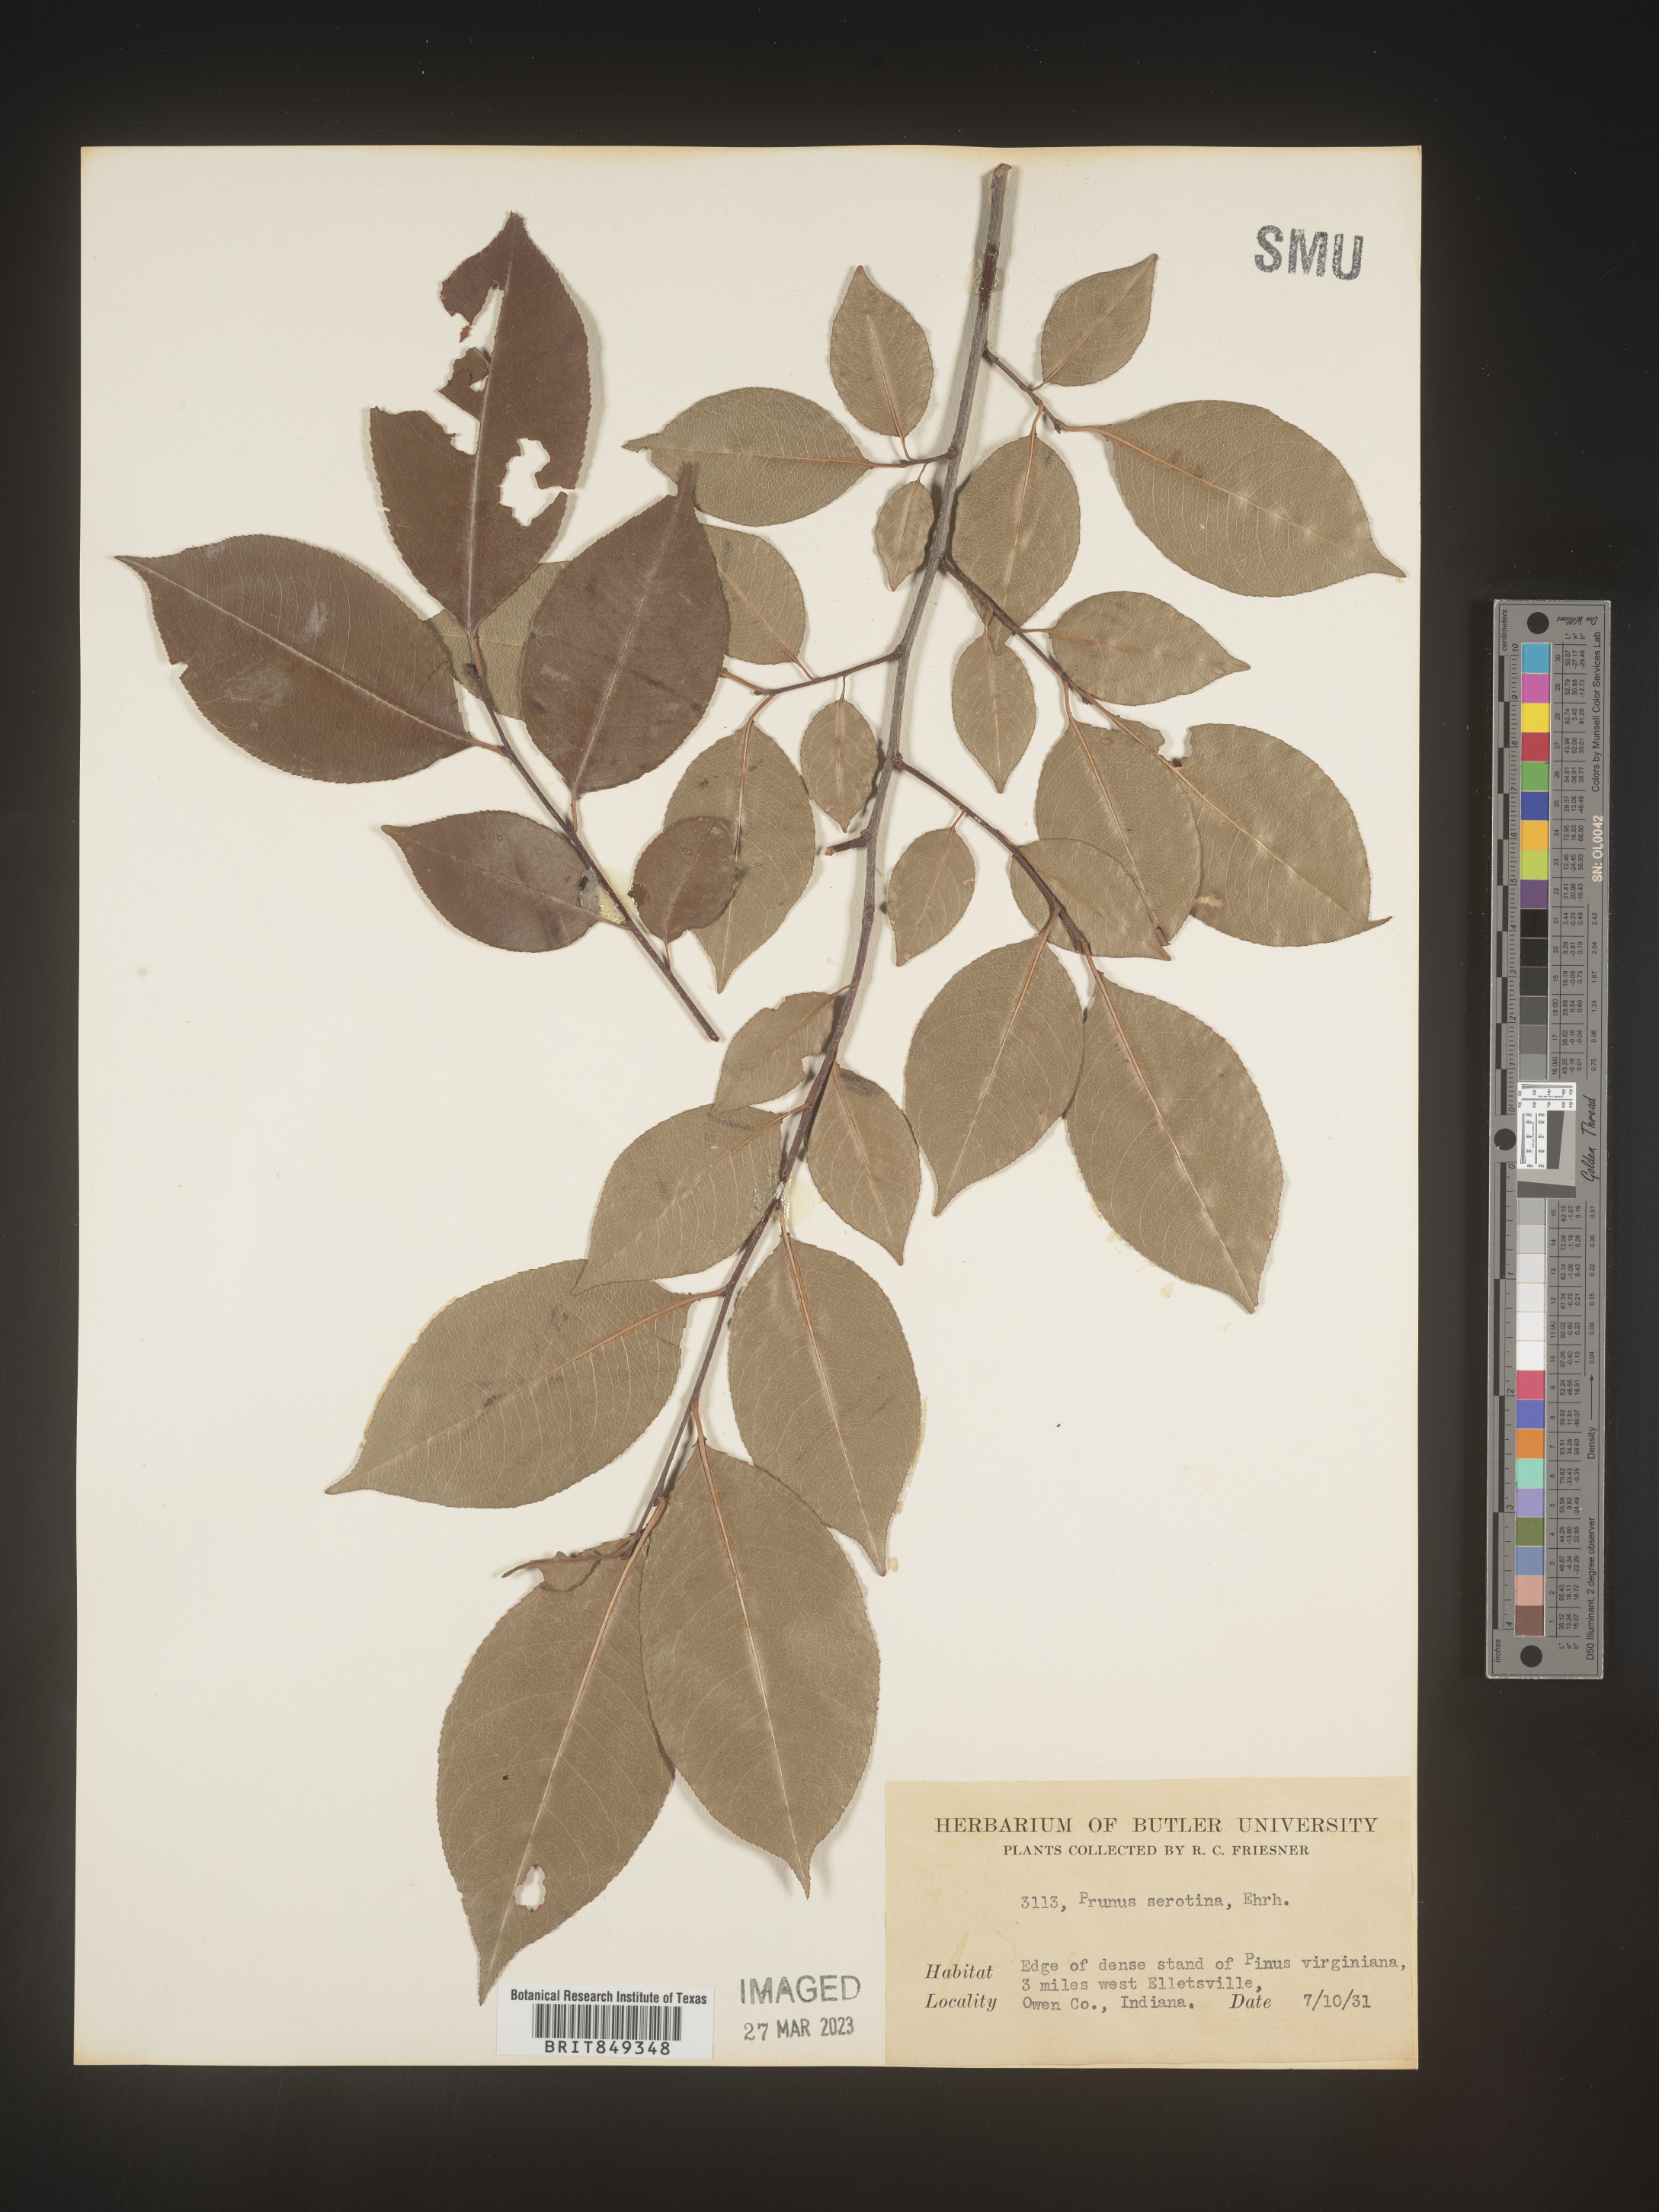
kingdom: Plantae
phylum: Tracheophyta
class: Magnoliopsida
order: Rosales
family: Rosaceae
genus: Prunus
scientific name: Prunus serotina
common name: Black cherry
